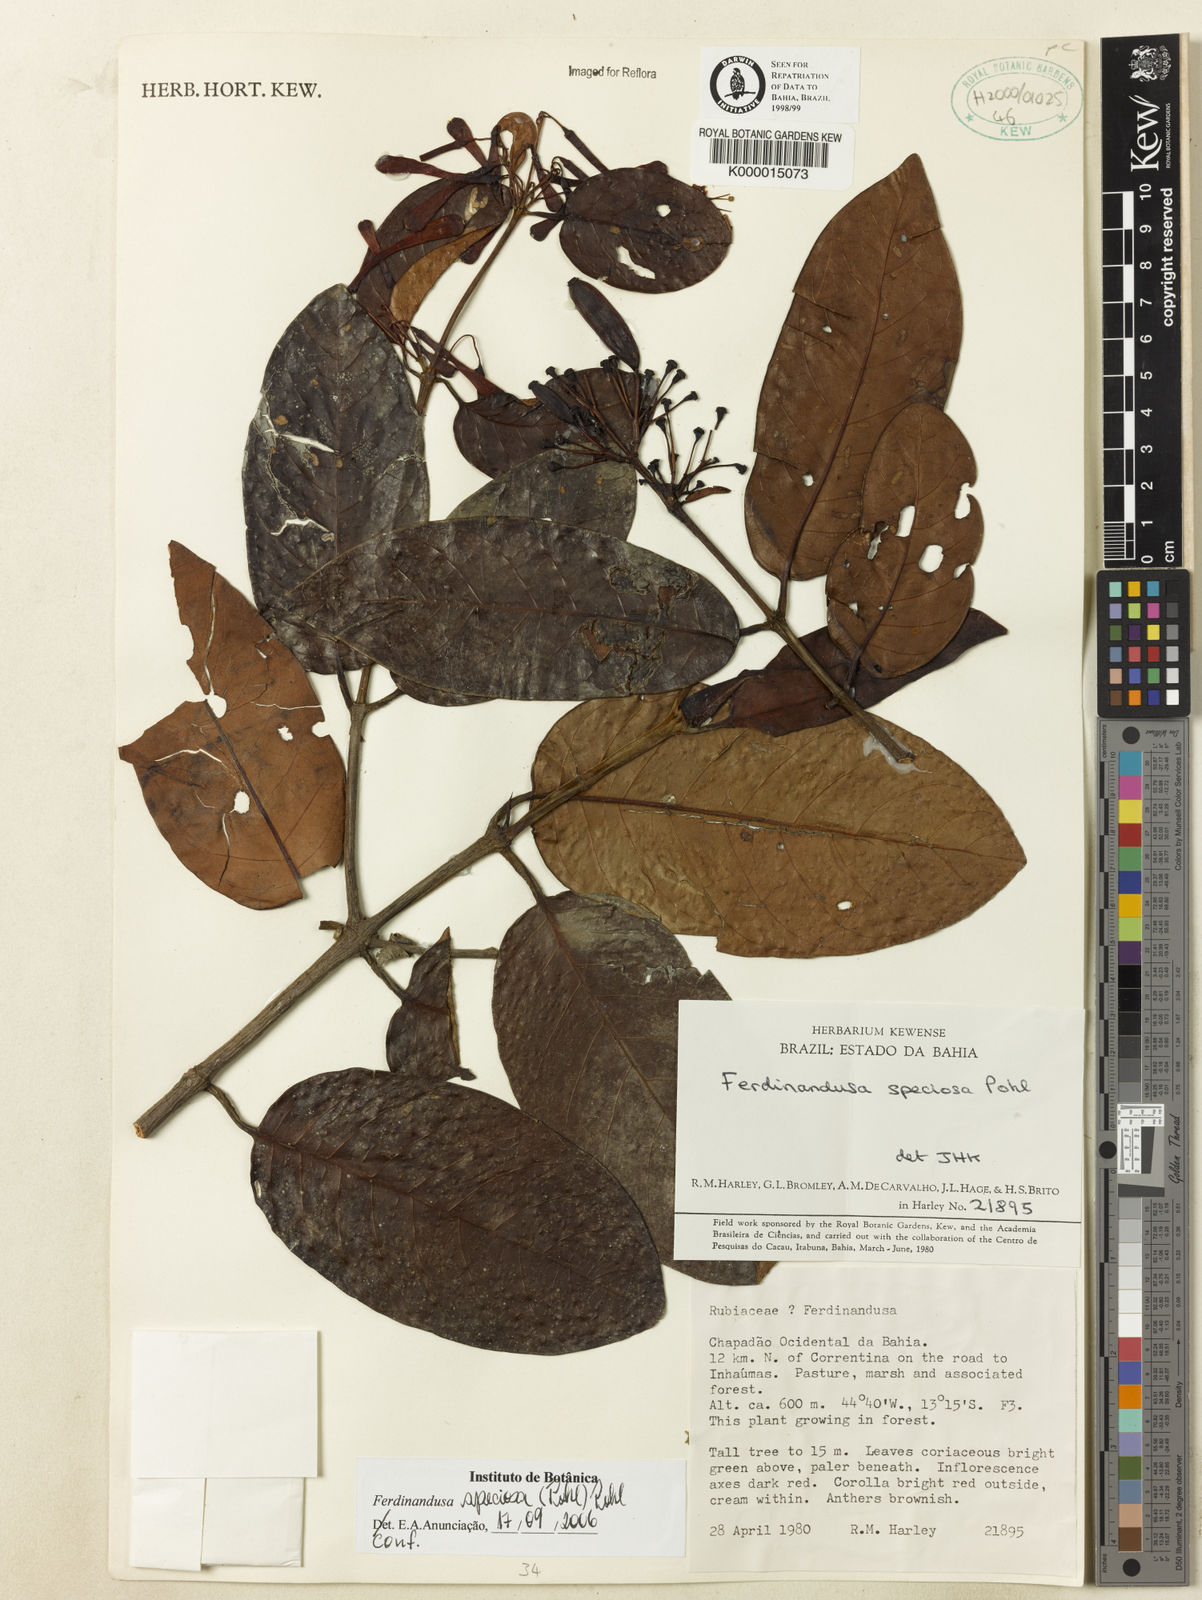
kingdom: Plantae
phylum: Tracheophyta
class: Magnoliopsida
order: Gentianales
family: Rubiaceae
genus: Ferdinandusa
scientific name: Ferdinandusa speciosa
